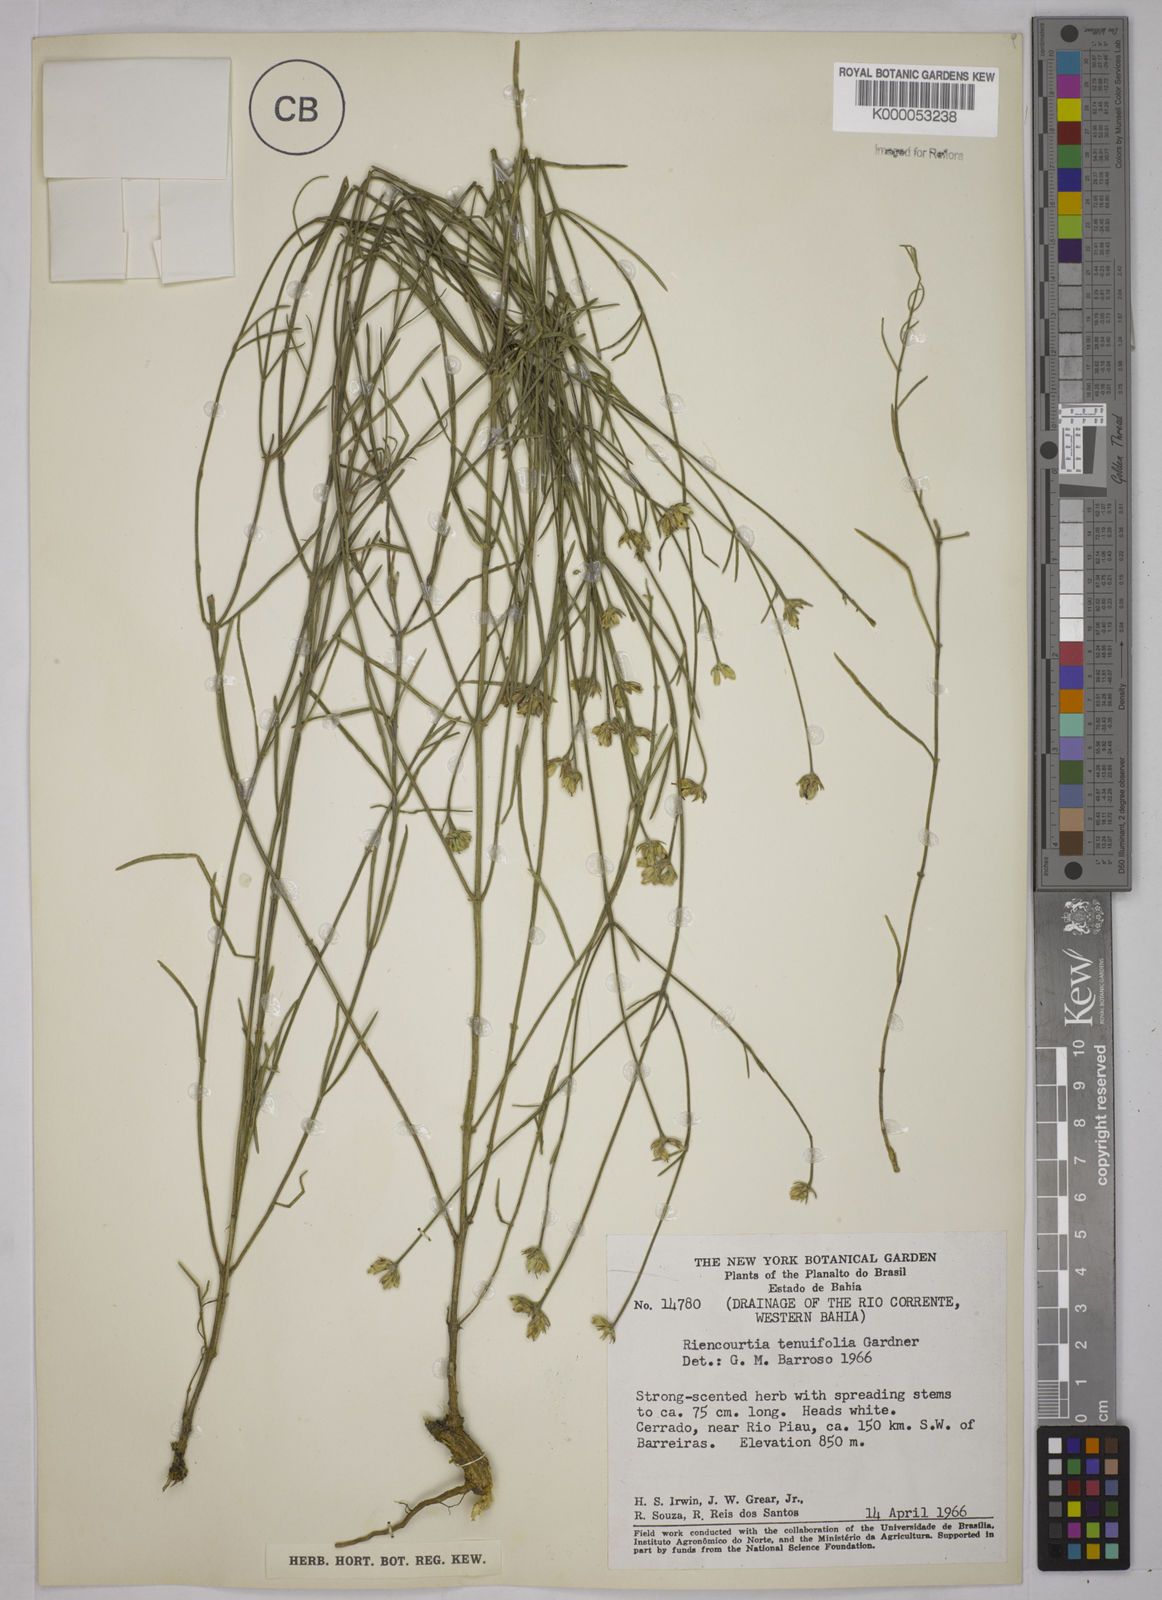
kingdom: Plantae
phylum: Tracheophyta
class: Magnoliopsida
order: Asterales
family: Asteraceae
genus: Riencourtia
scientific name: Riencourtia tenuifolia
